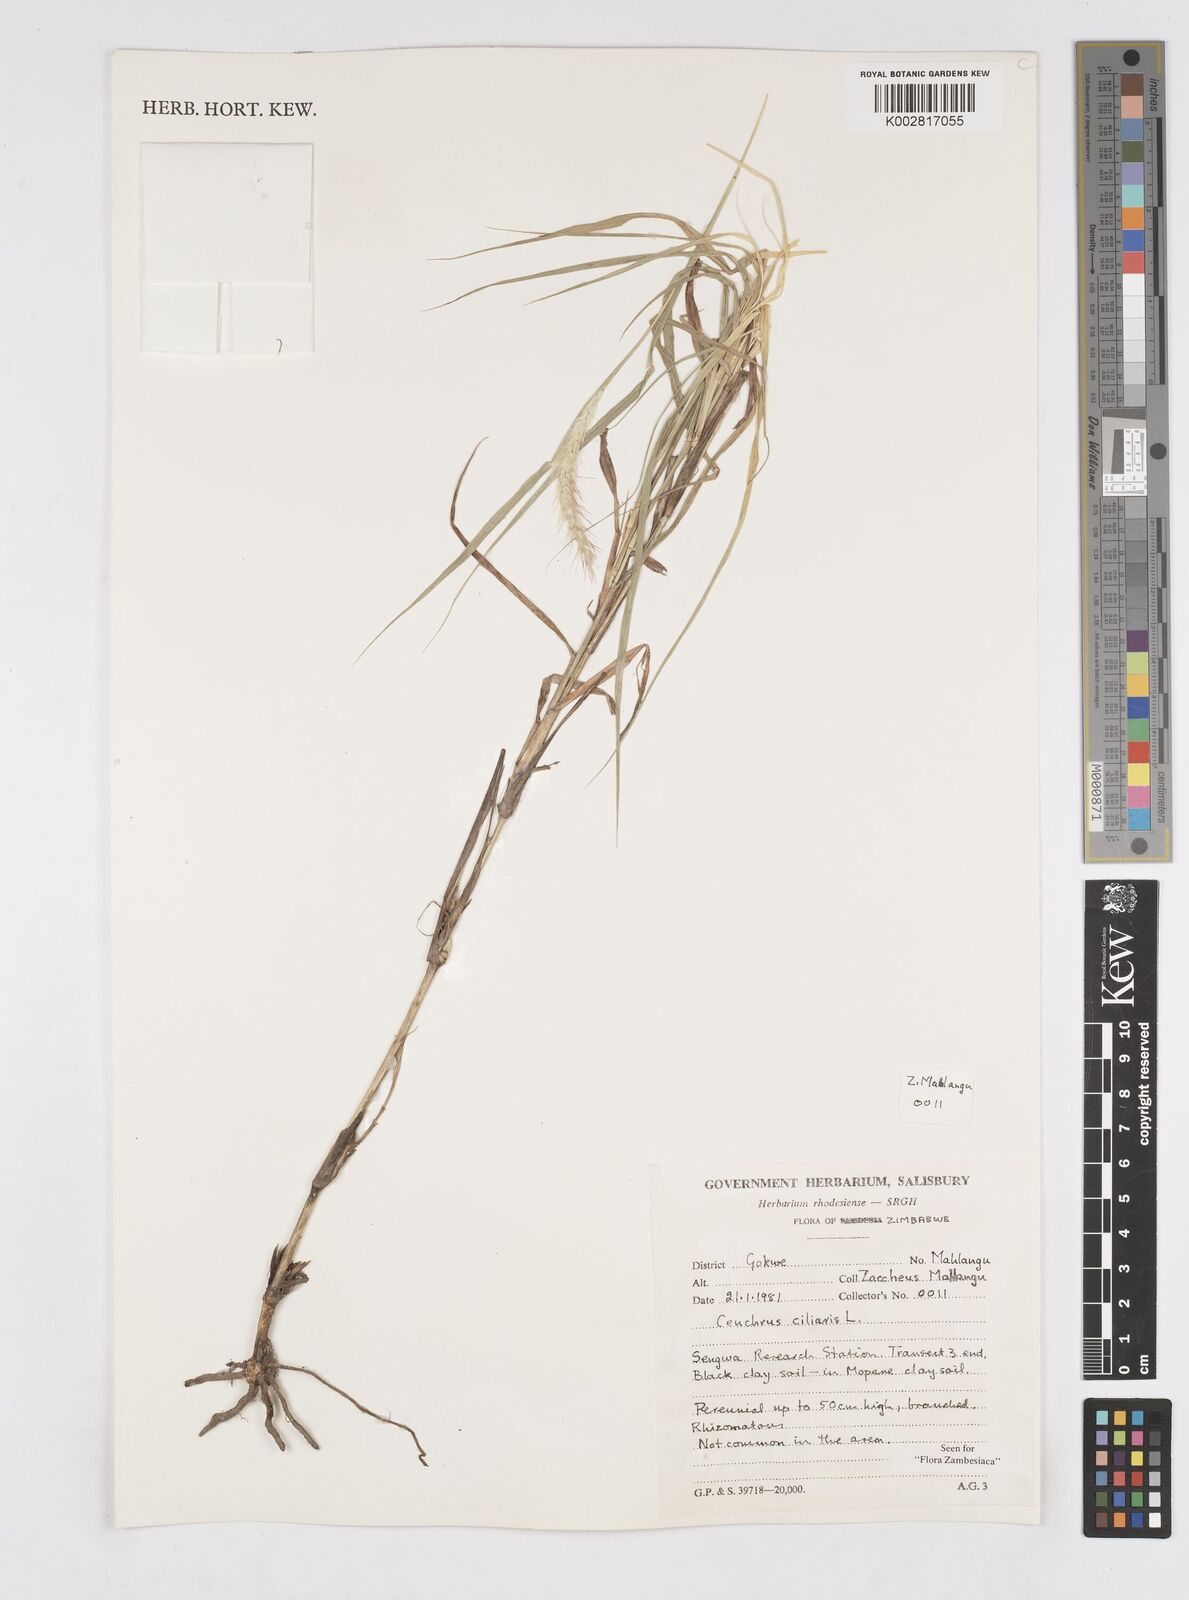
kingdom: Plantae
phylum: Tracheophyta
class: Liliopsida
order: Poales
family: Poaceae
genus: Cenchrus
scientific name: Cenchrus ciliaris
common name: Buffelgrass
